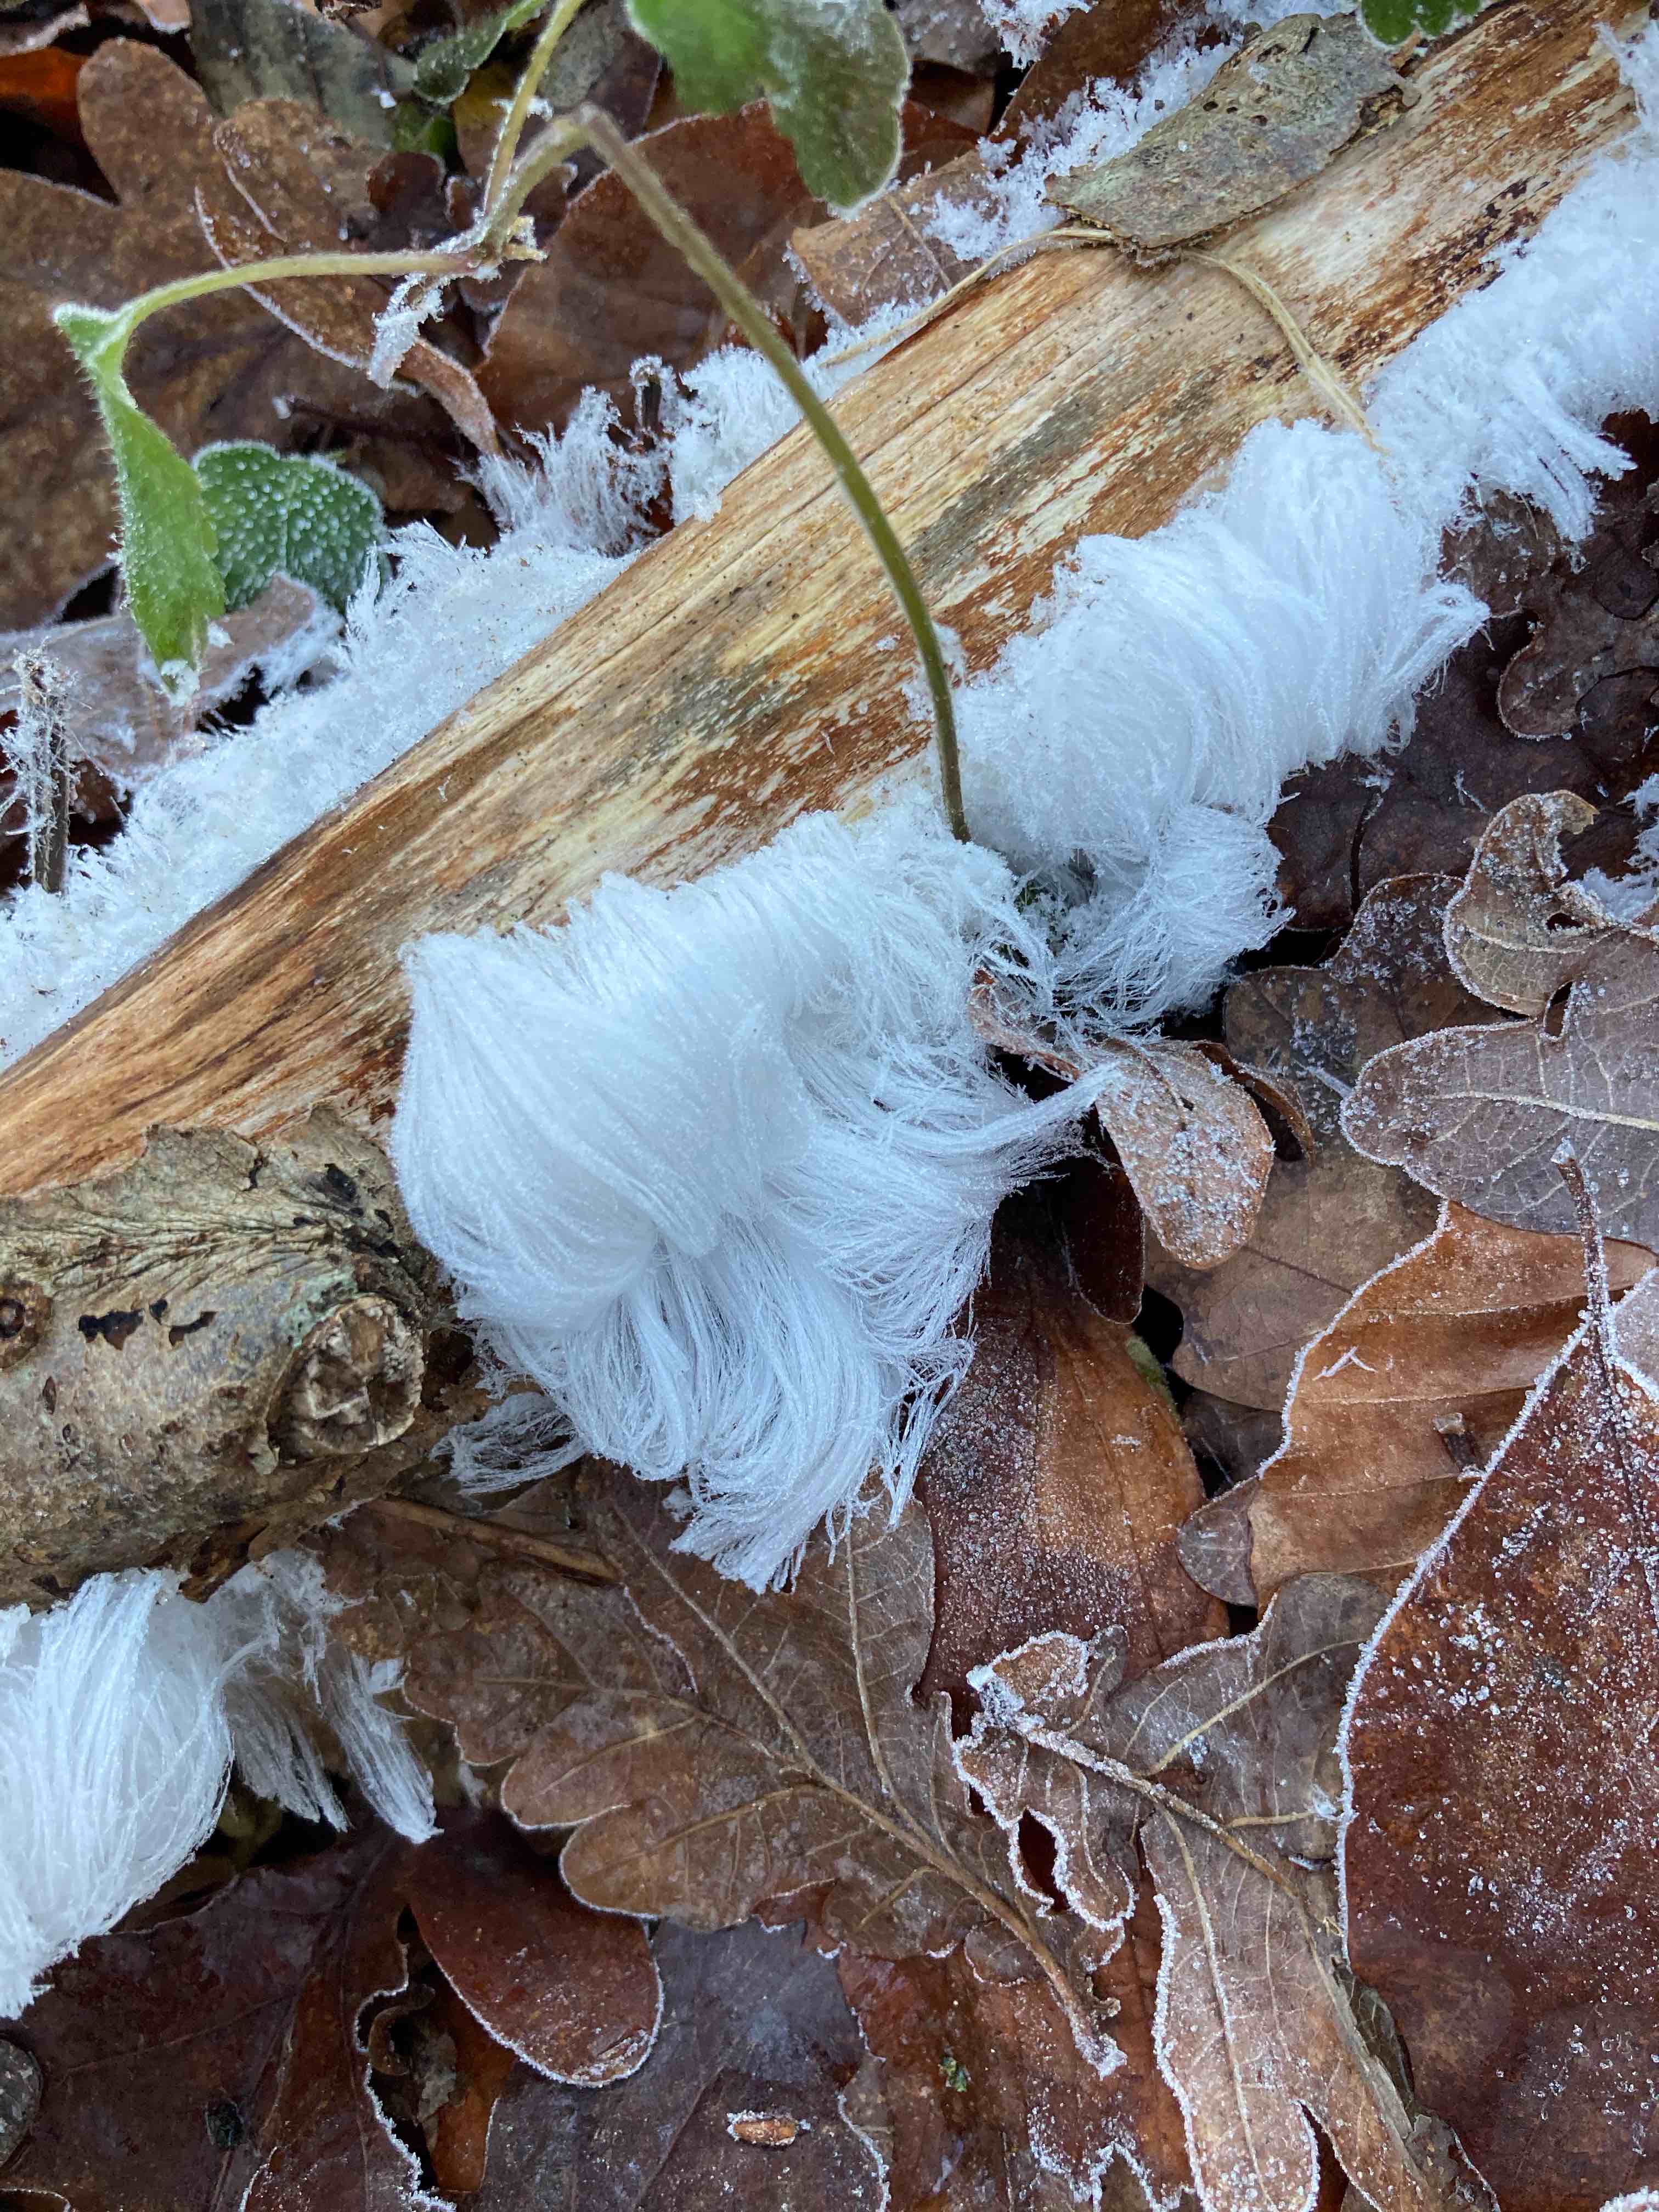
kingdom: Fungi
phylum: Basidiomycota
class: Tremellomycetes
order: Tremellales
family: Exidiaceae
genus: Exidiopsis
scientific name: Exidiopsis effusa
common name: smuk bævrehinde
